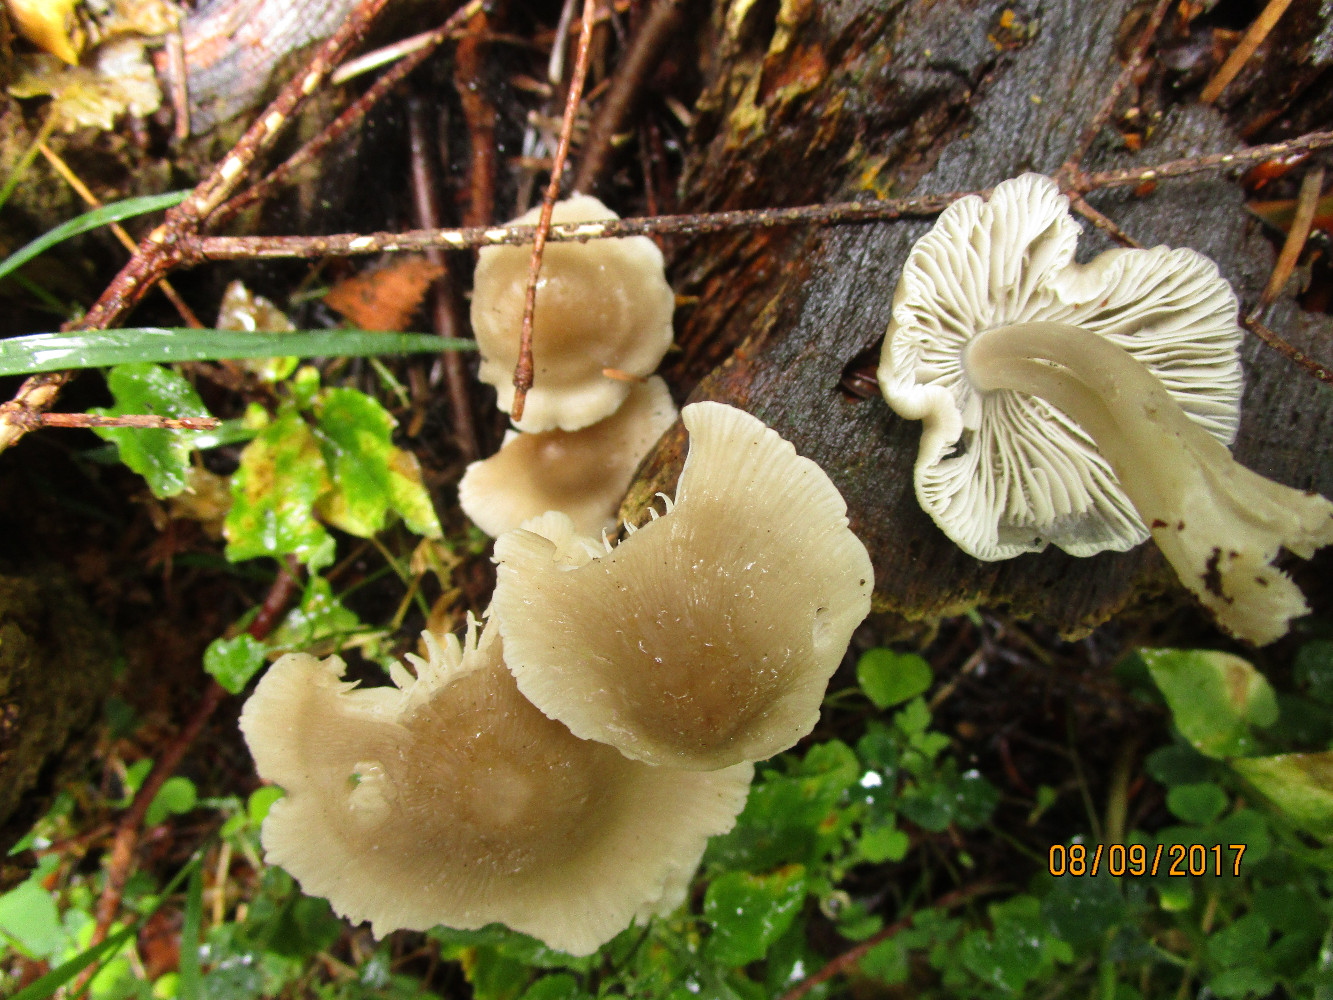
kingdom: Fungi
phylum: Basidiomycota
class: Agaricomycetes
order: Agaricales
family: Mycenaceae
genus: Mycena
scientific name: Mycena galericulata
